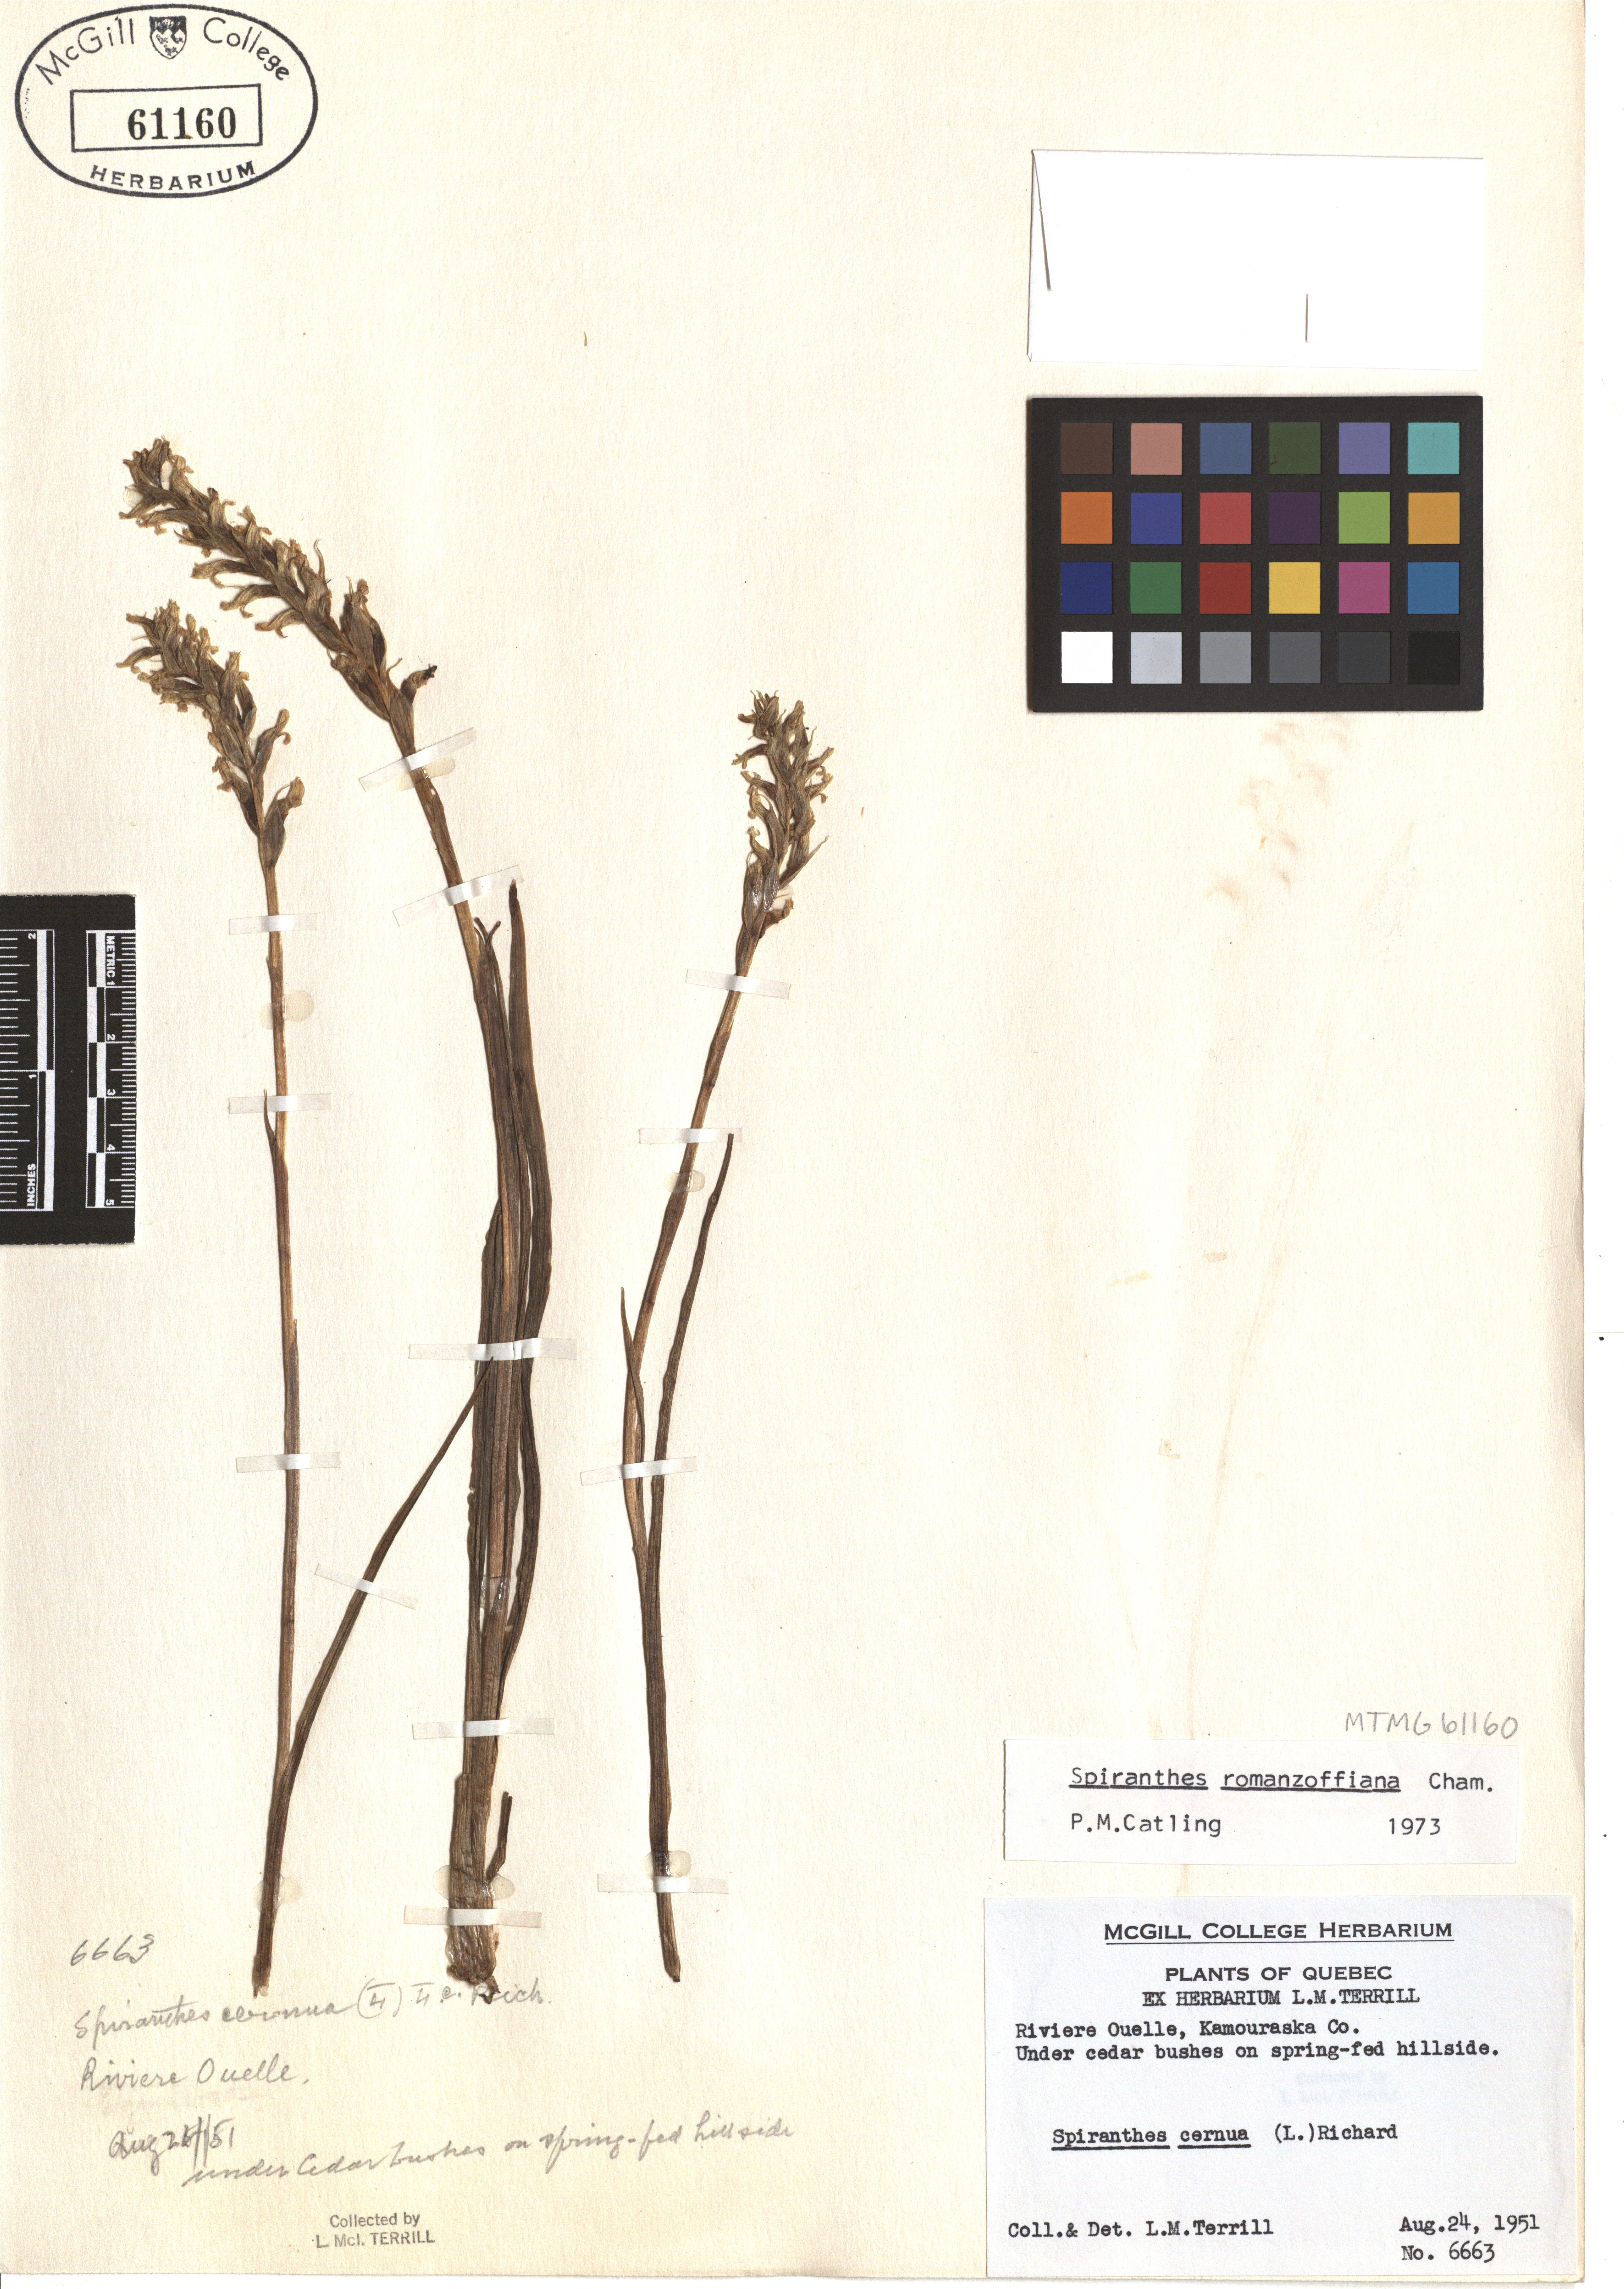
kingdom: Plantae
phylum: Tracheophyta
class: Liliopsida
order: Asparagales
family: Orchidaceae
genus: Spiranthes
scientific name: Spiranthes romanzoffiana
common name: Irish lady's-tresses
